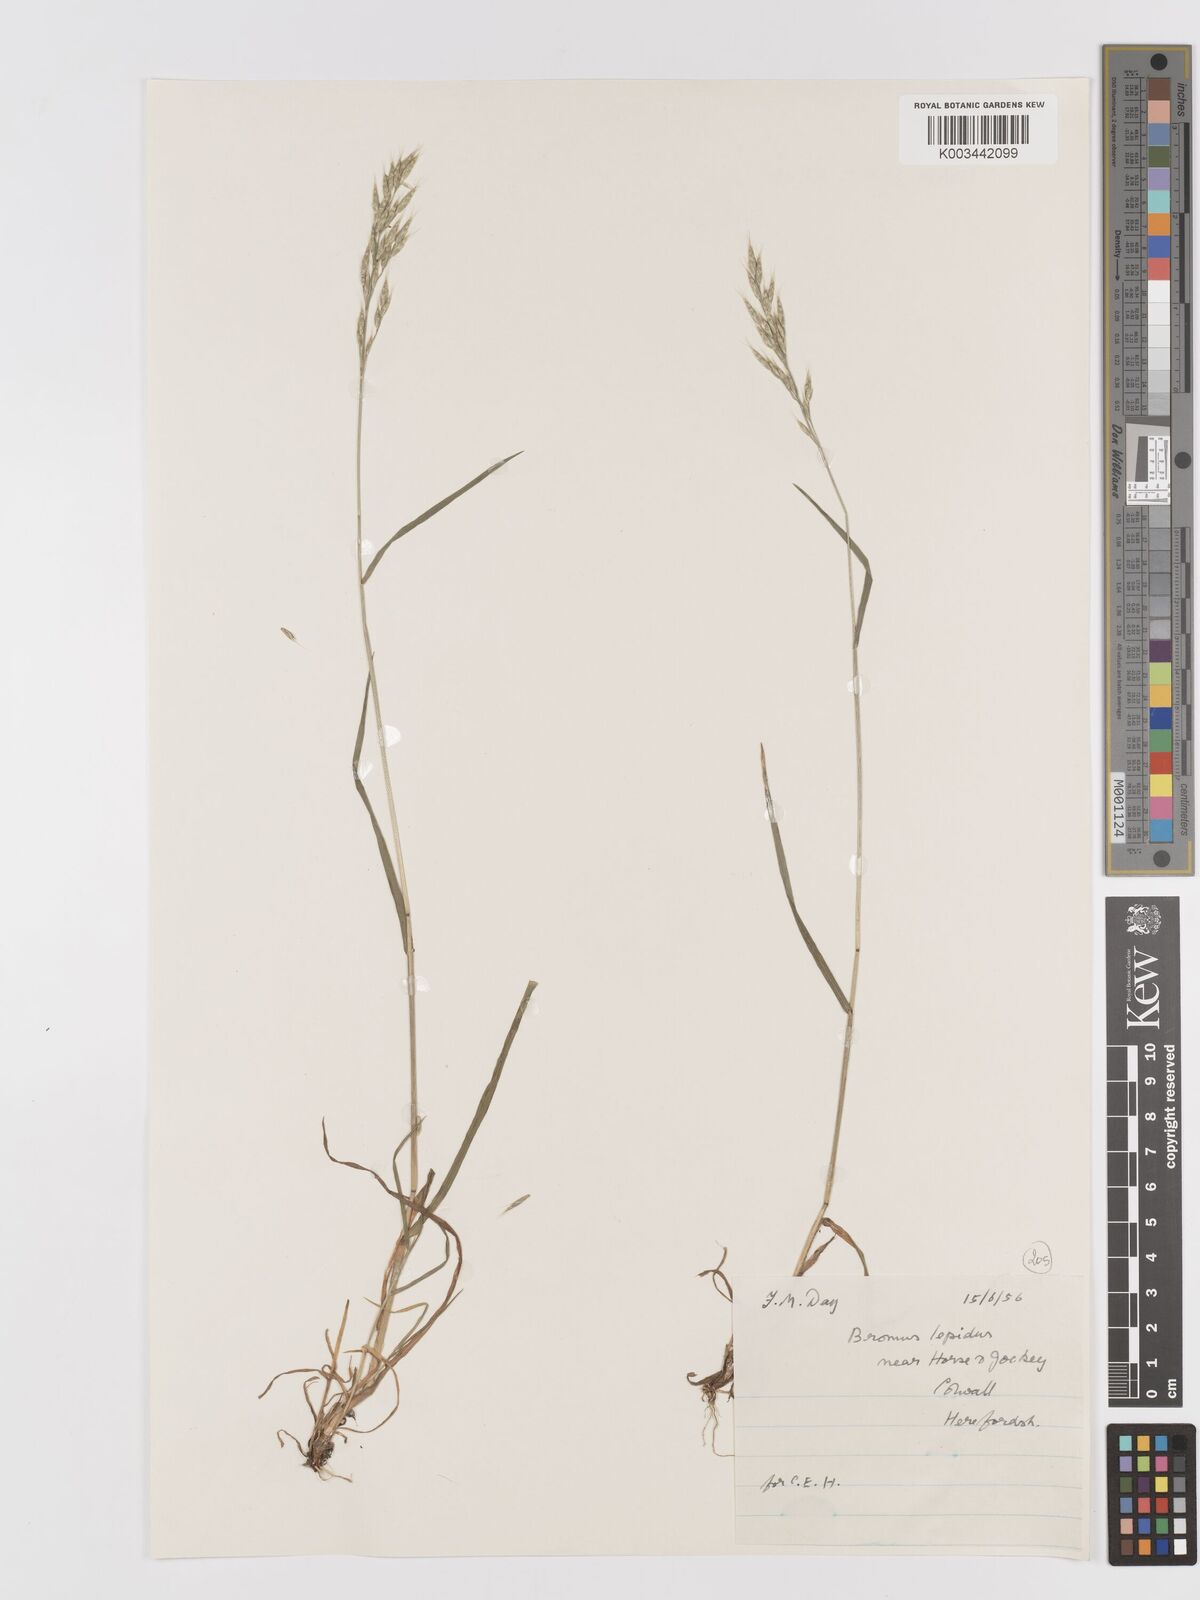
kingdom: Plantae
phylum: Tracheophyta
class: Liliopsida
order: Poales
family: Poaceae
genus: Bromus
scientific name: Bromus lepidus
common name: Slender soft-brome
